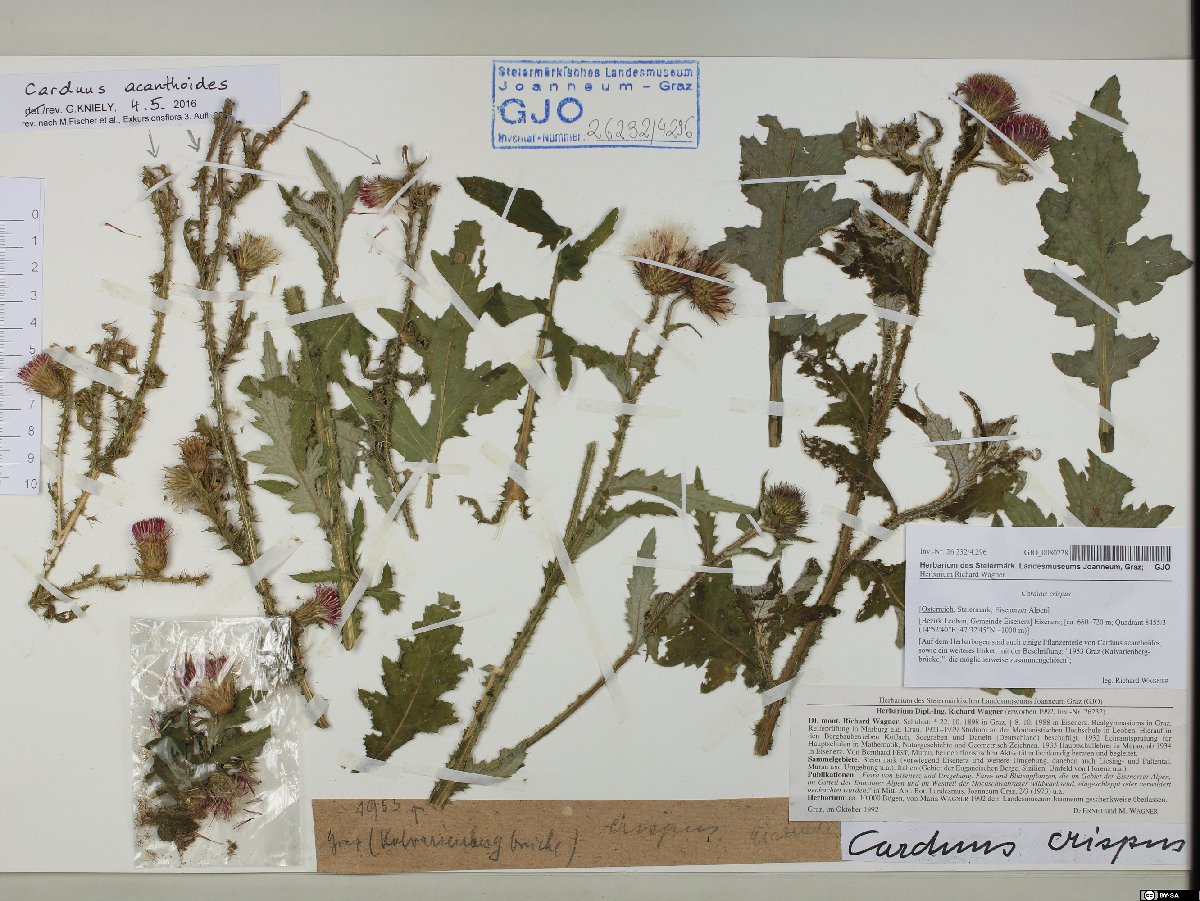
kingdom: Plantae
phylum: Tracheophyta
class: Magnoliopsida
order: Asterales
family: Asteraceae
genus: Carduus
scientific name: Carduus crispus
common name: Welted thistle
